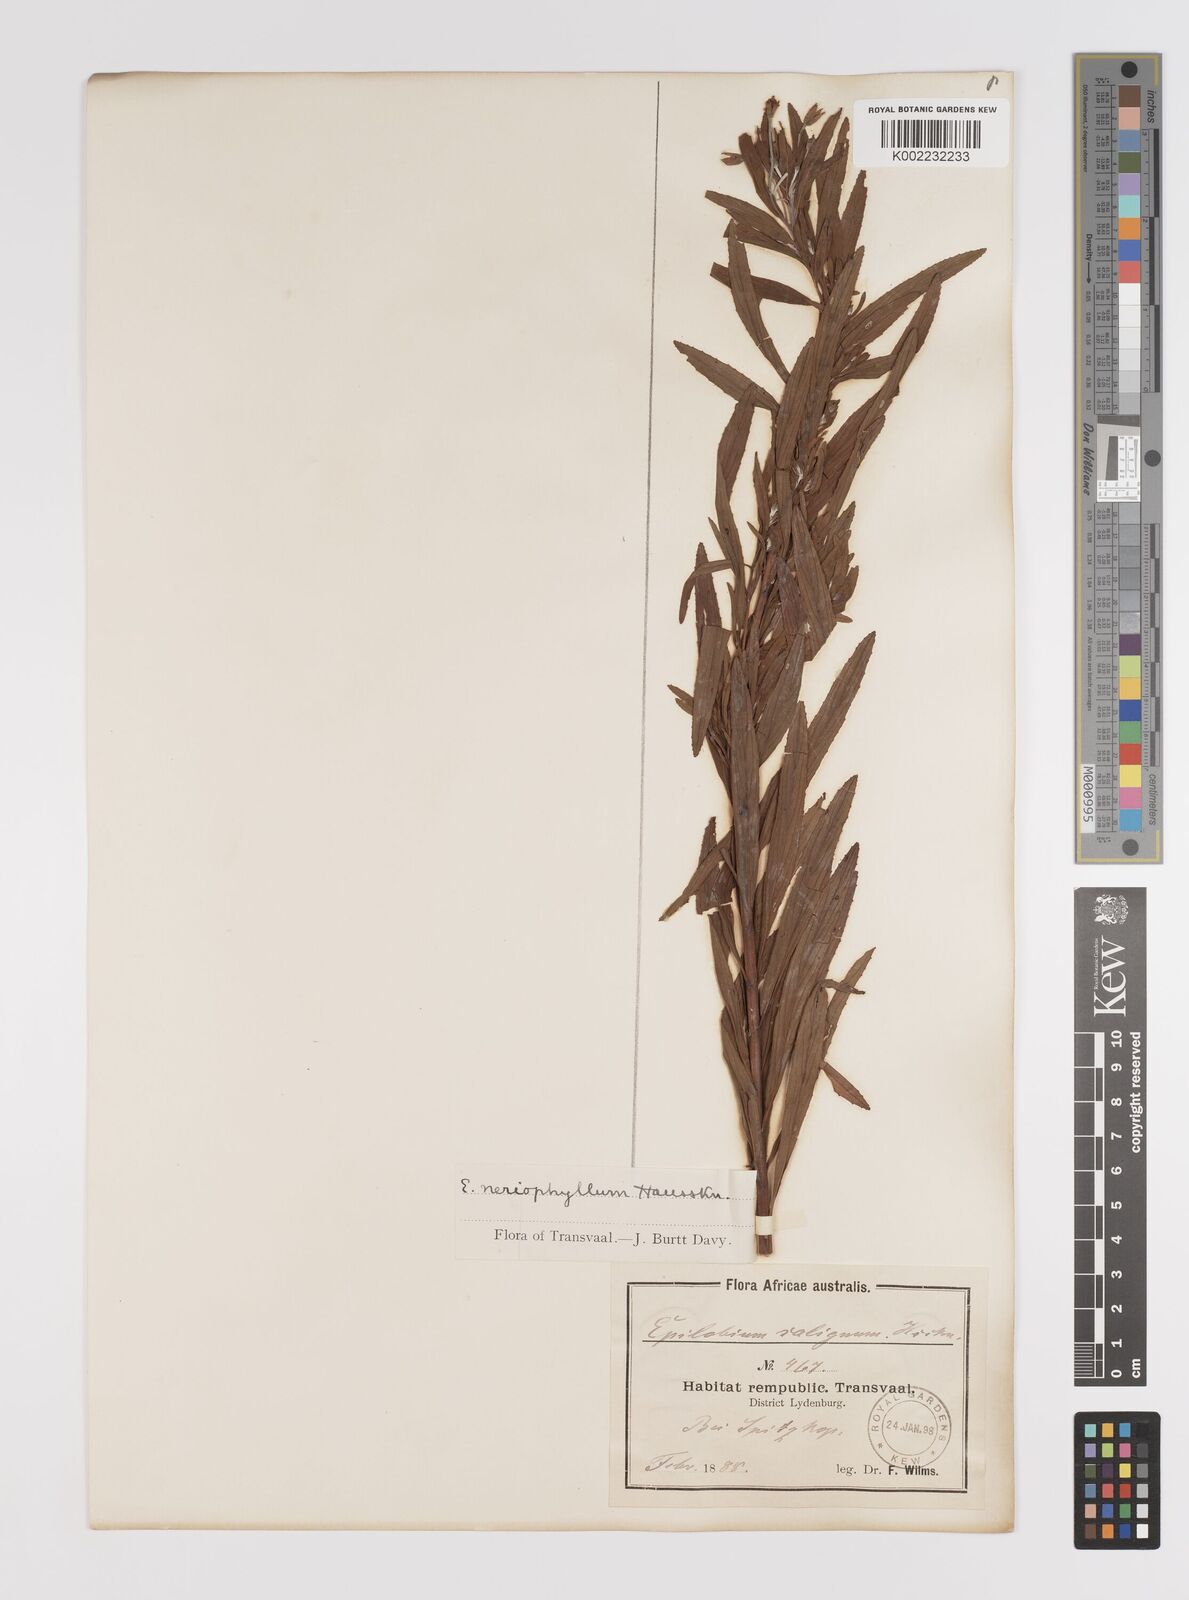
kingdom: Plantae
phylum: Tracheophyta
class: Magnoliopsida
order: Myrtales
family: Onagraceae
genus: Epilobium
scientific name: Epilobium salignum
